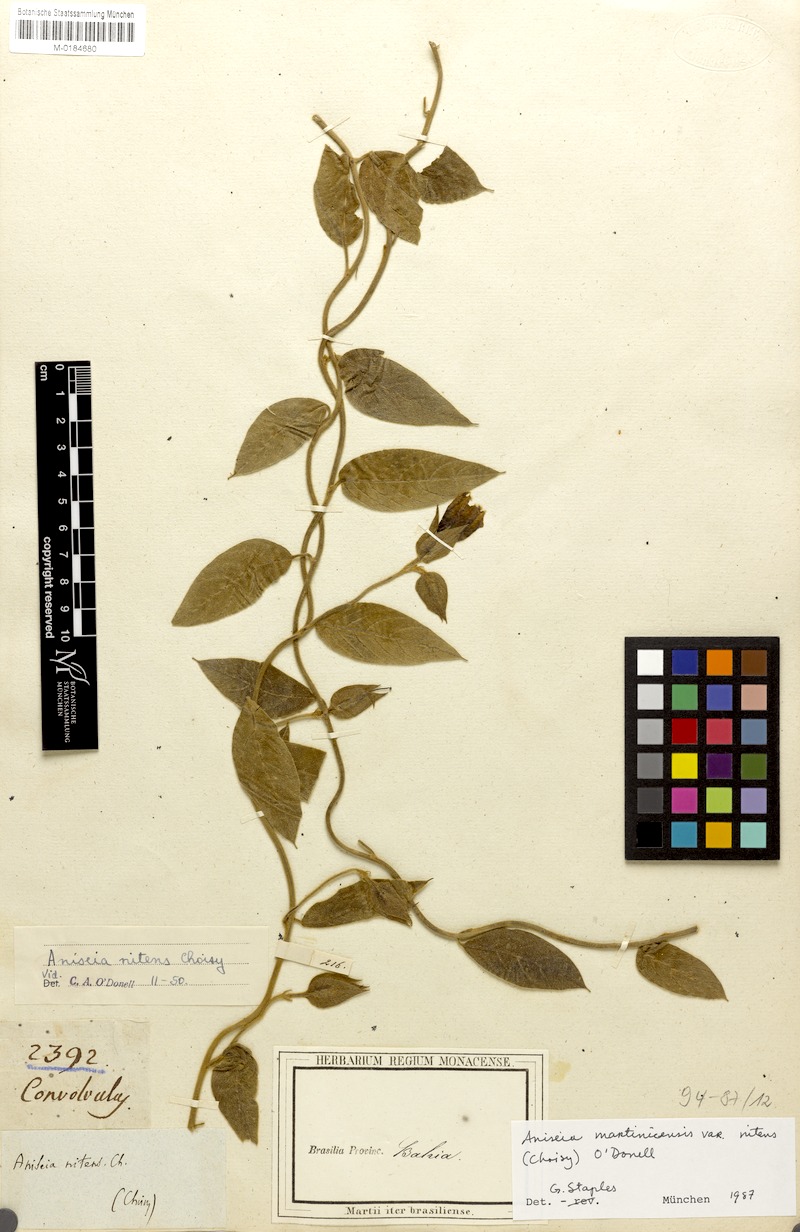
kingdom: Plantae
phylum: Tracheophyta
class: Magnoliopsida
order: Solanales
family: Convolvulaceae
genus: Aniseia
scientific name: Aniseia martinicensis
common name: Kulayadambu
